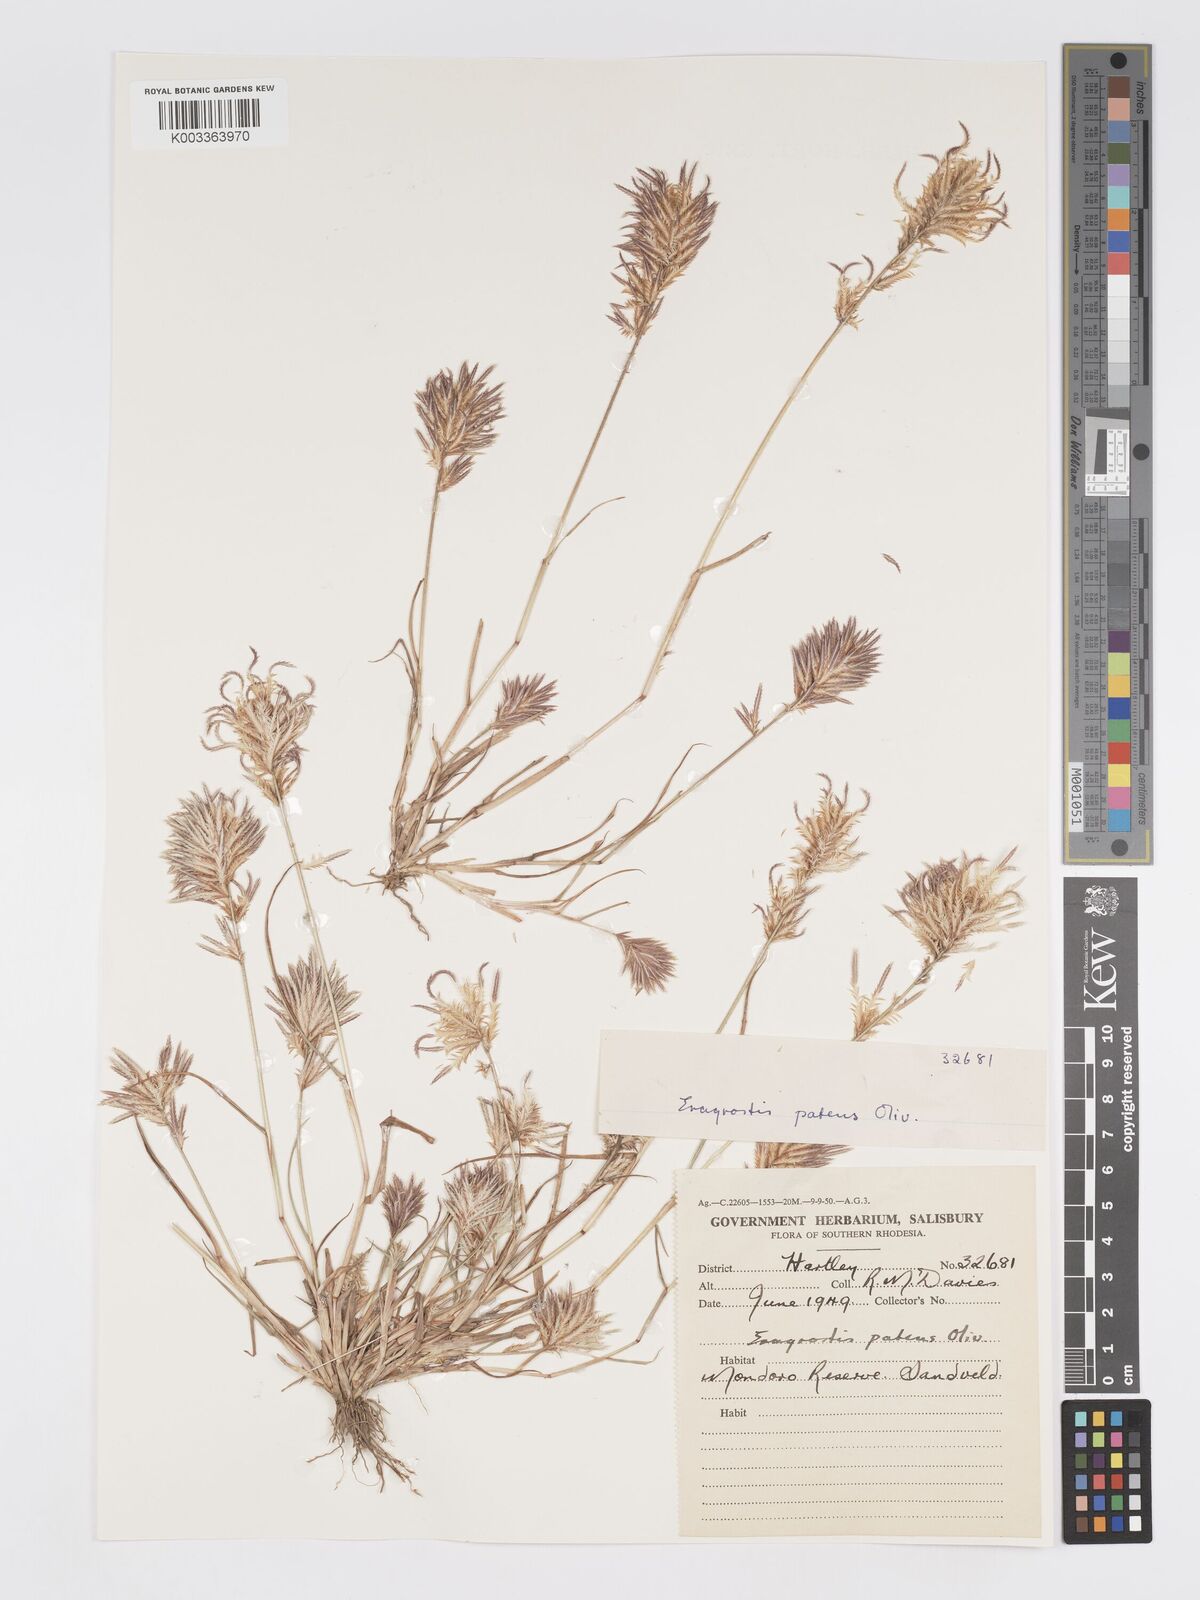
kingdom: Plantae
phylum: Tracheophyta
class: Liliopsida
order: Poales
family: Poaceae
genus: Eragrostis
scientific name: Eragrostis patens
